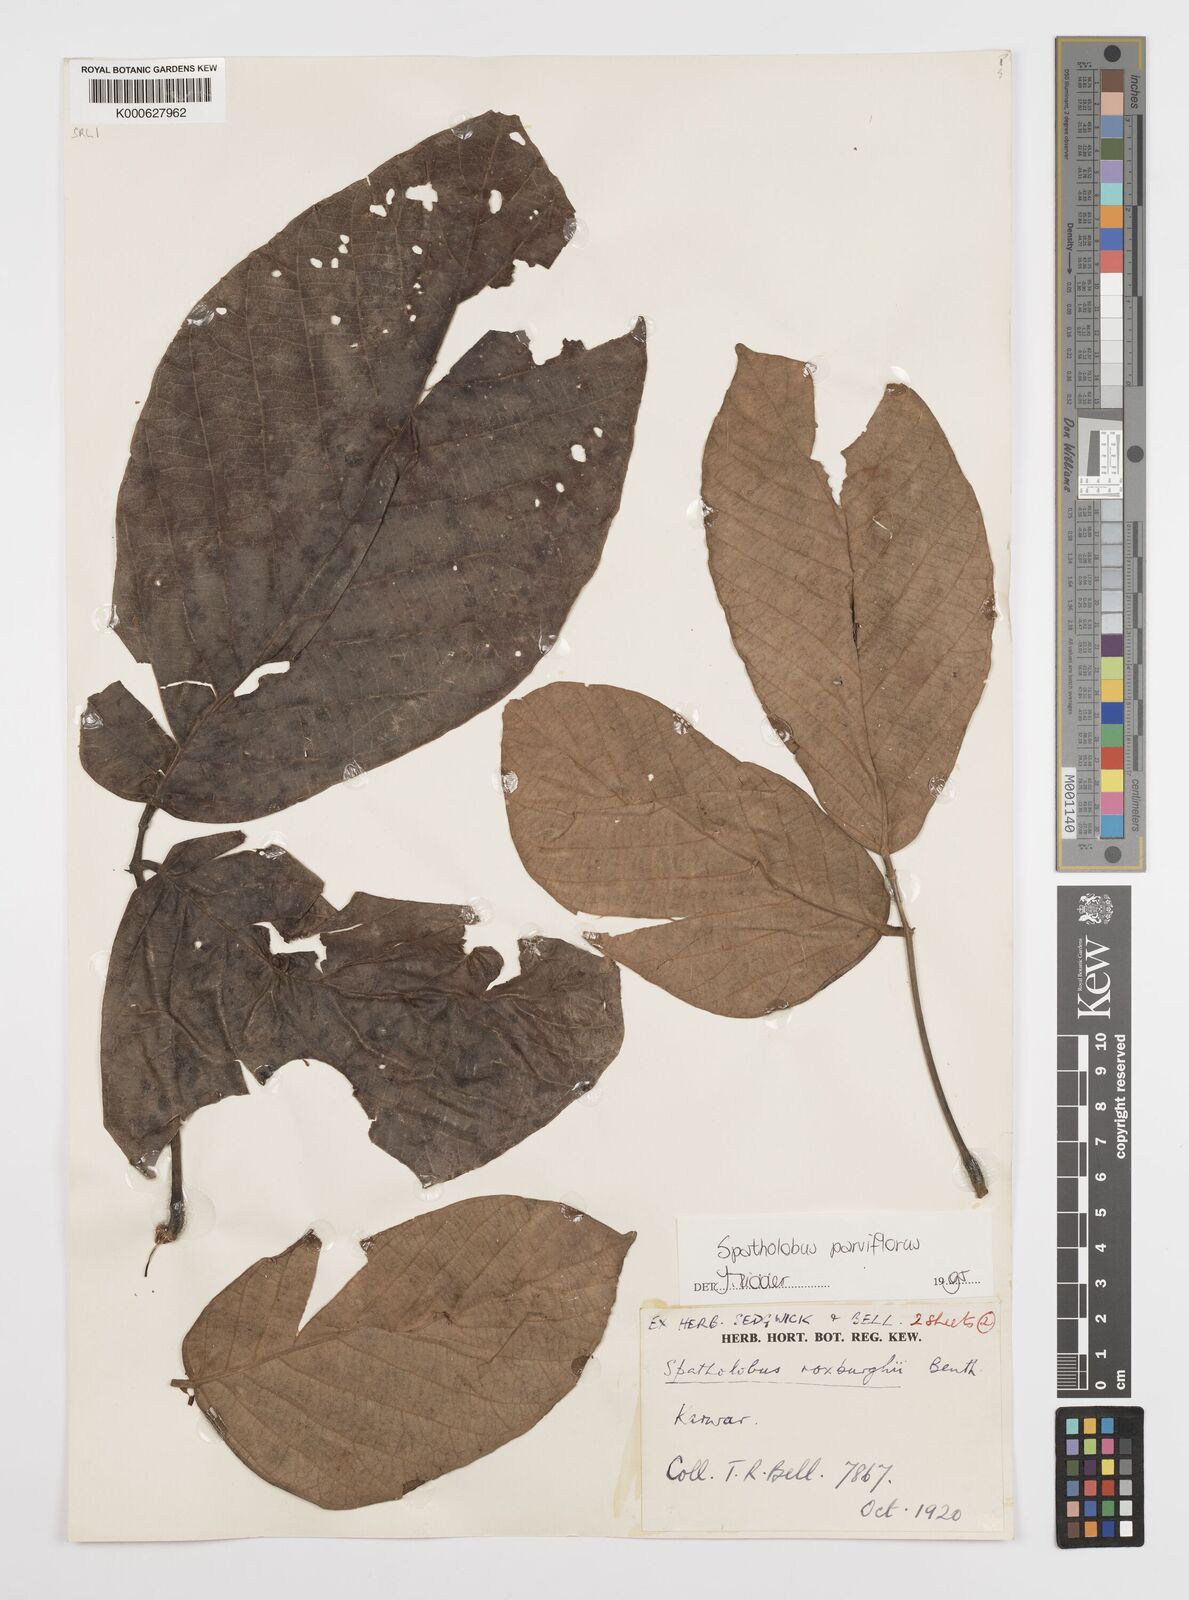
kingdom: Plantae
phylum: Tracheophyta
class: Magnoliopsida
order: Fabales
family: Fabaceae
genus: Spatholobus
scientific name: Spatholobus parviflorus
